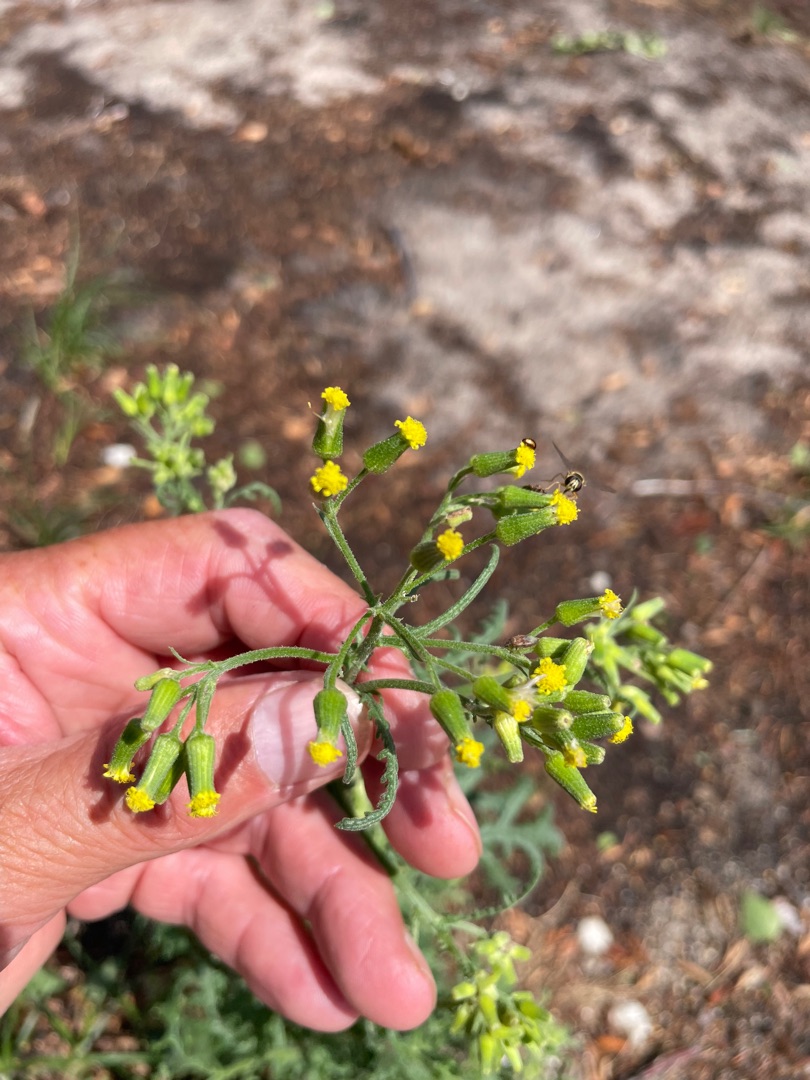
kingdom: Plantae
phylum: Tracheophyta
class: Magnoliopsida
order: Asterales
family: Asteraceae
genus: Senecio
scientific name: Senecio sylvaticus
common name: Skov-brandbæger
